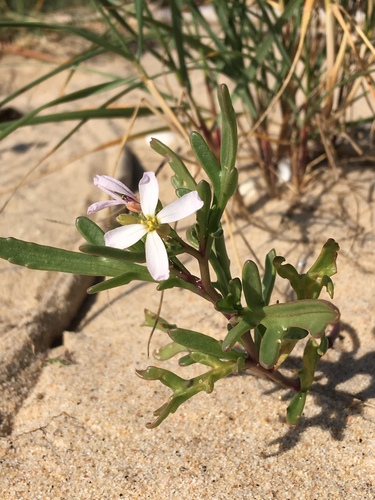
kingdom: Plantae
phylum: Tracheophyta
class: Magnoliopsida
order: Brassicales
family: Brassicaceae
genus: Cakile
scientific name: Cakile maritima
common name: Sea rocket
